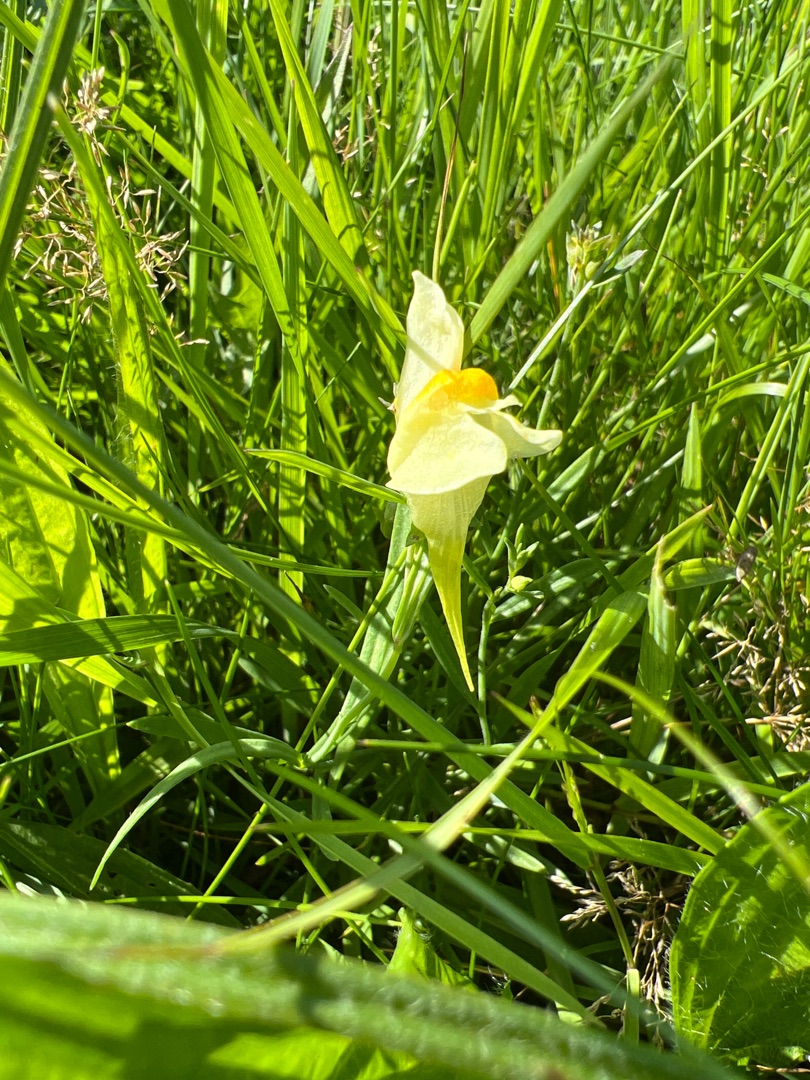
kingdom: Plantae
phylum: Tracheophyta
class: Magnoliopsida
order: Lamiales
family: Plantaginaceae
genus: Linaria
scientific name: Linaria vulgaris
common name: Almindelig torskemund
